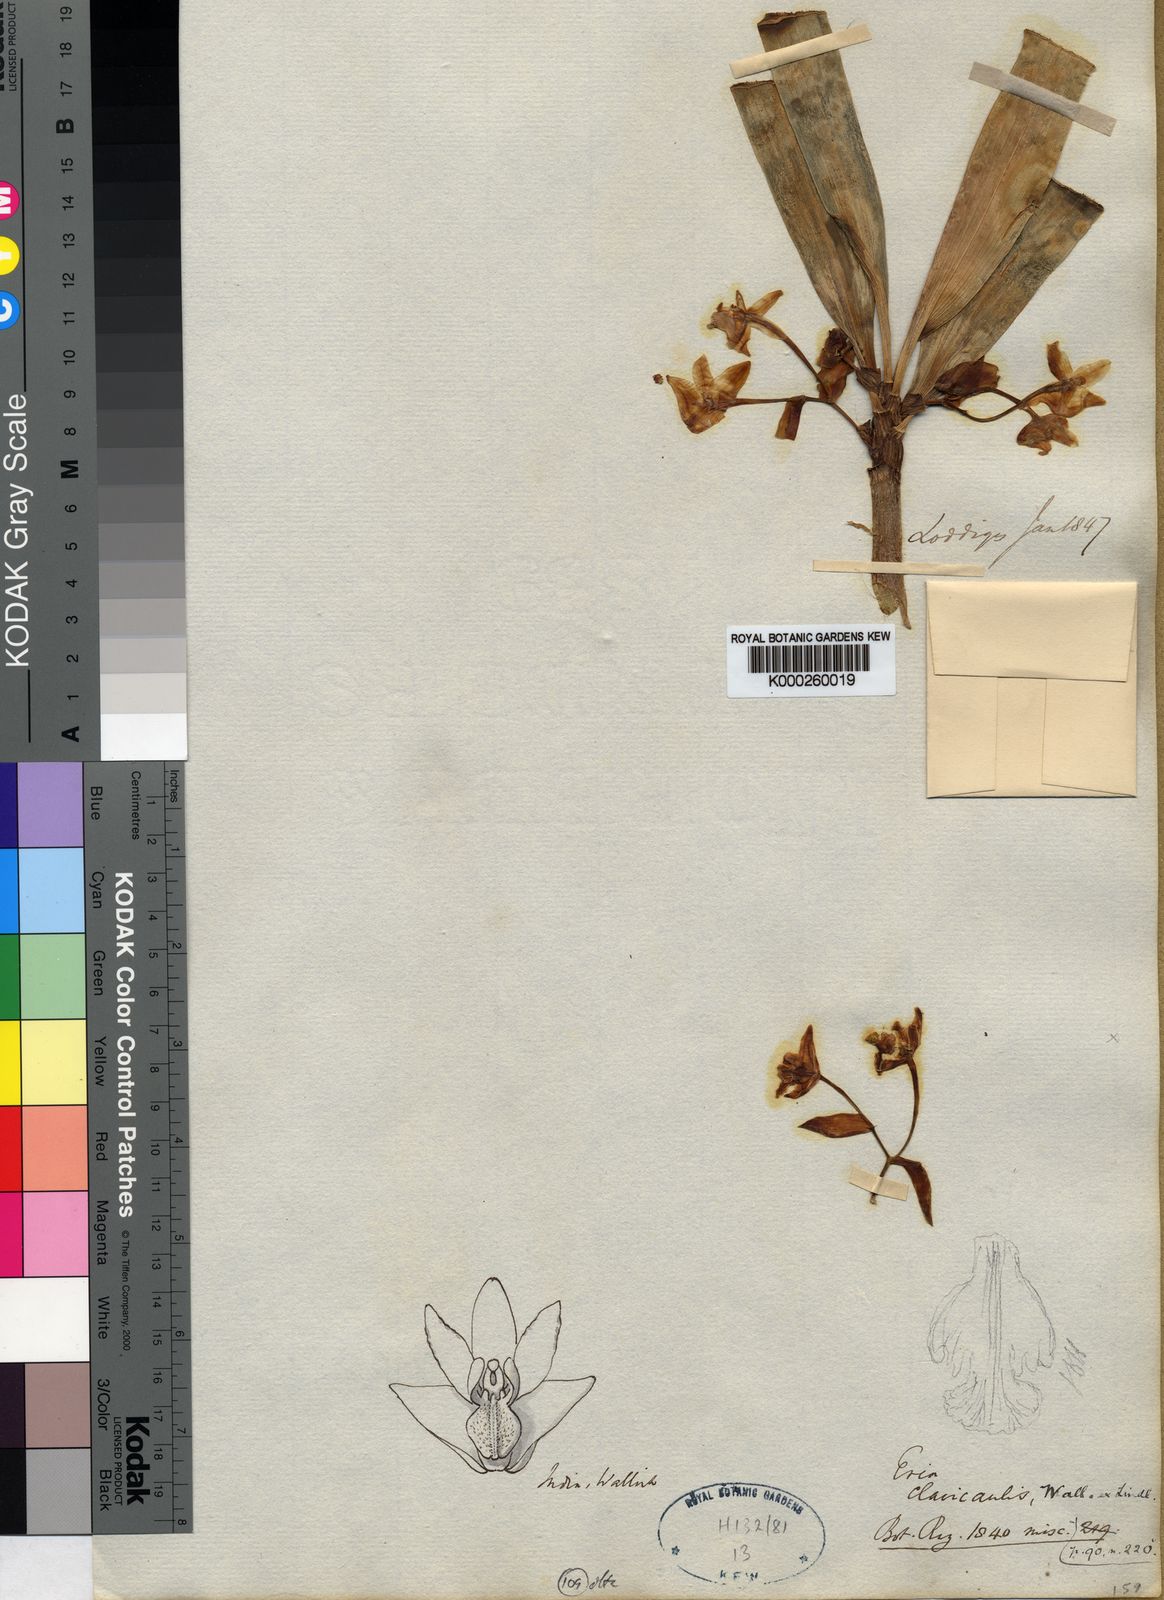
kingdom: Plantae
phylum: Tracheophyta
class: Liliopsida
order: Asparagales
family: Orchidaceae
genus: Cylindrolobus
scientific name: Cylindrolobus clavicaulis
